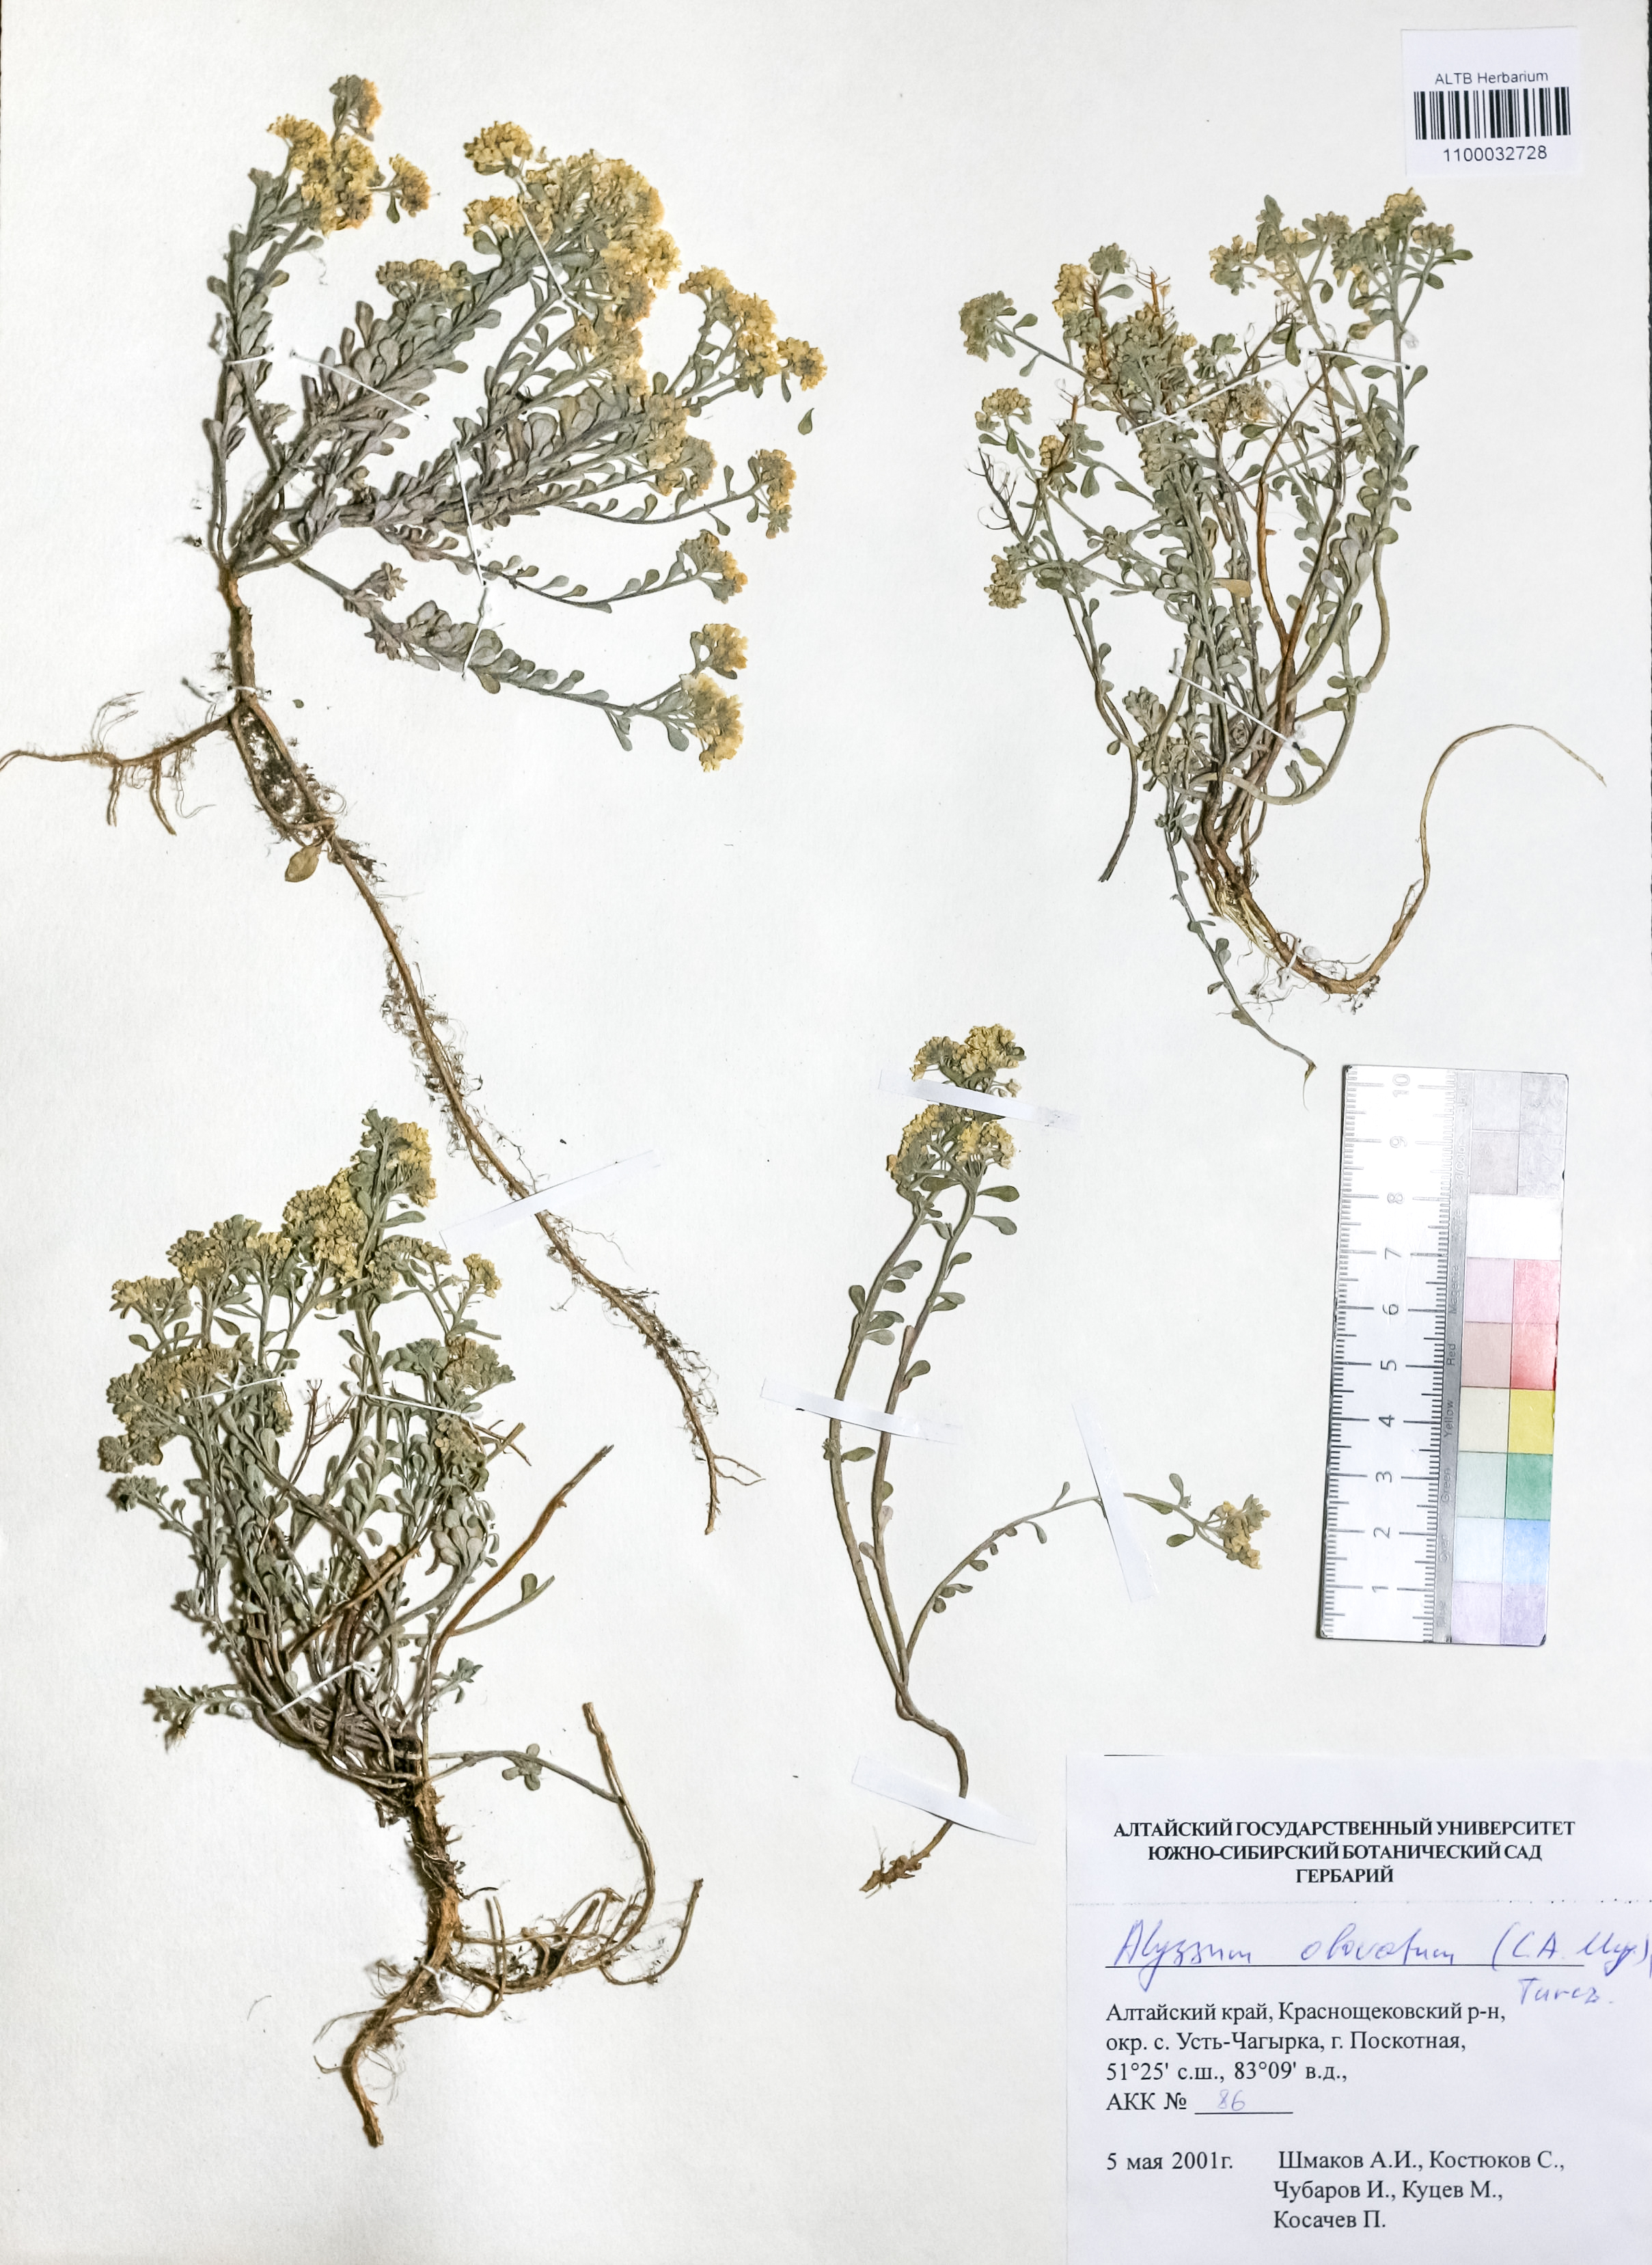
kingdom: Plantae
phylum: Tracheophyta
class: Magnoliopsida
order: Brassicales
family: Brassicaceae
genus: Odontarrhena
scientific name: Odontarrhena obovata
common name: American alyssum
